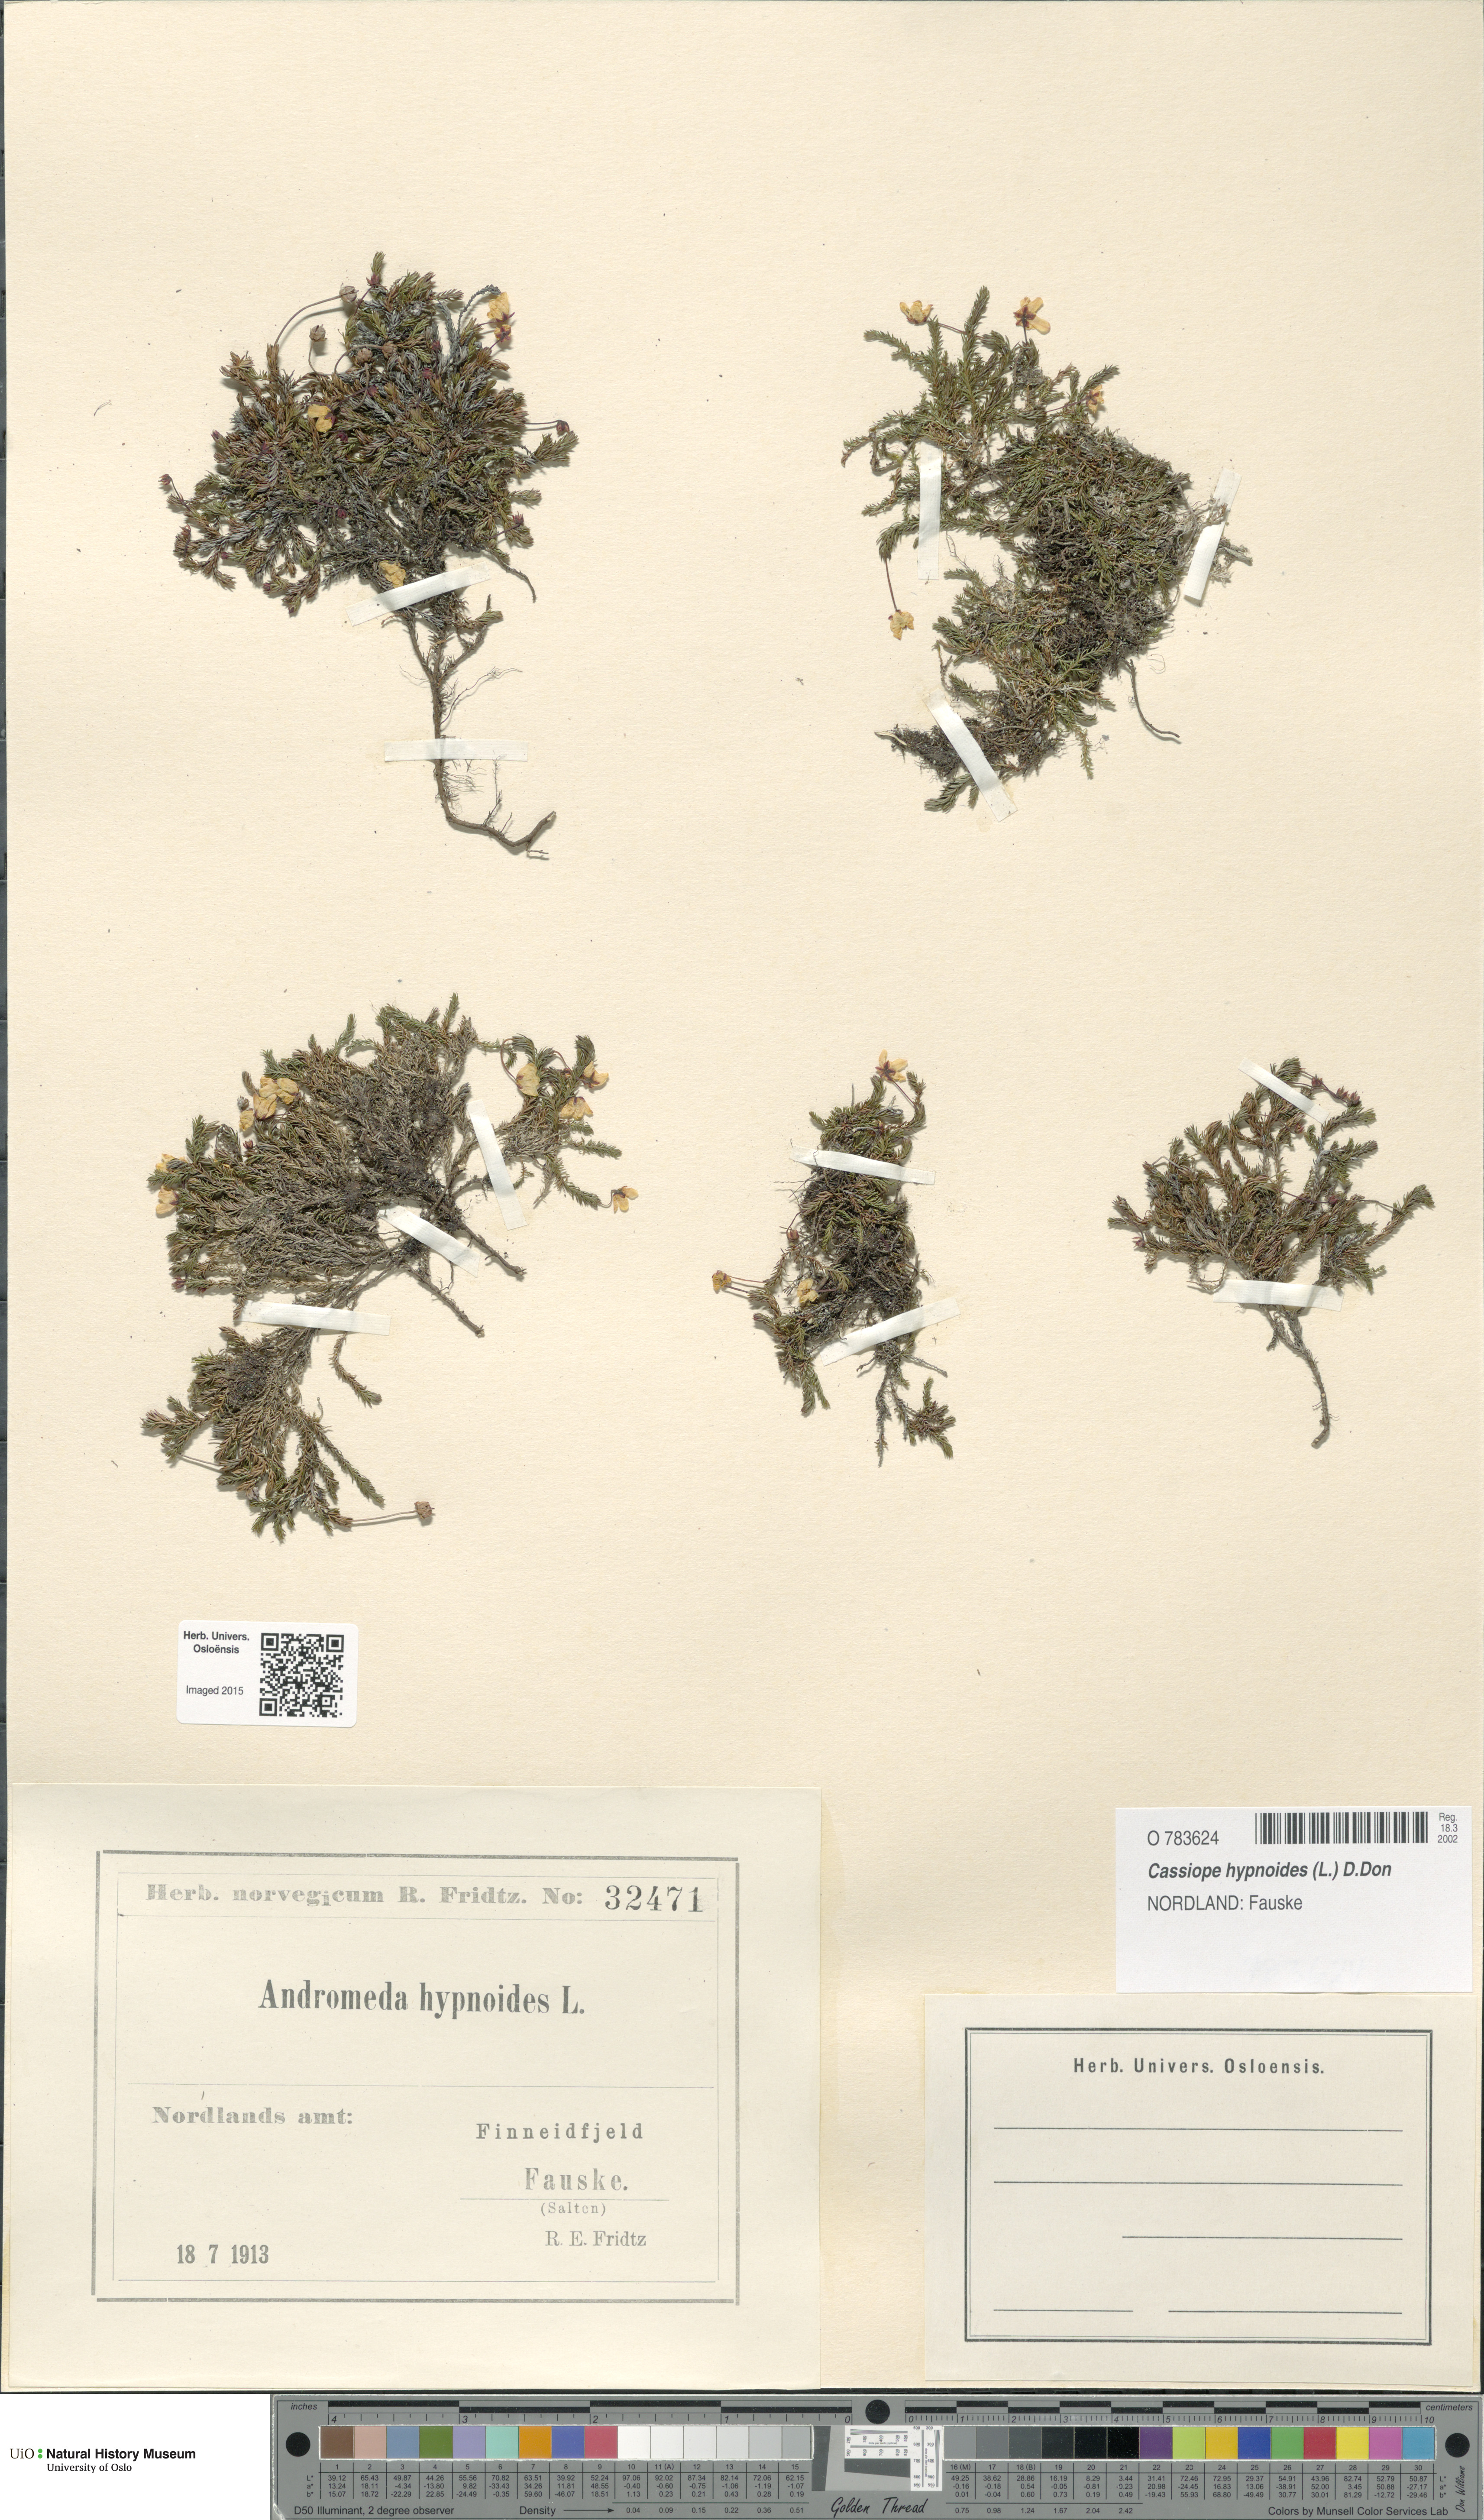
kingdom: Plantae
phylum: Tracheophyta
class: Magnoliopsida
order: Ericales
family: Ericaceae
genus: Harrimanella
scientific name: Harrimanella hypnoides
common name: Moss bell heather
